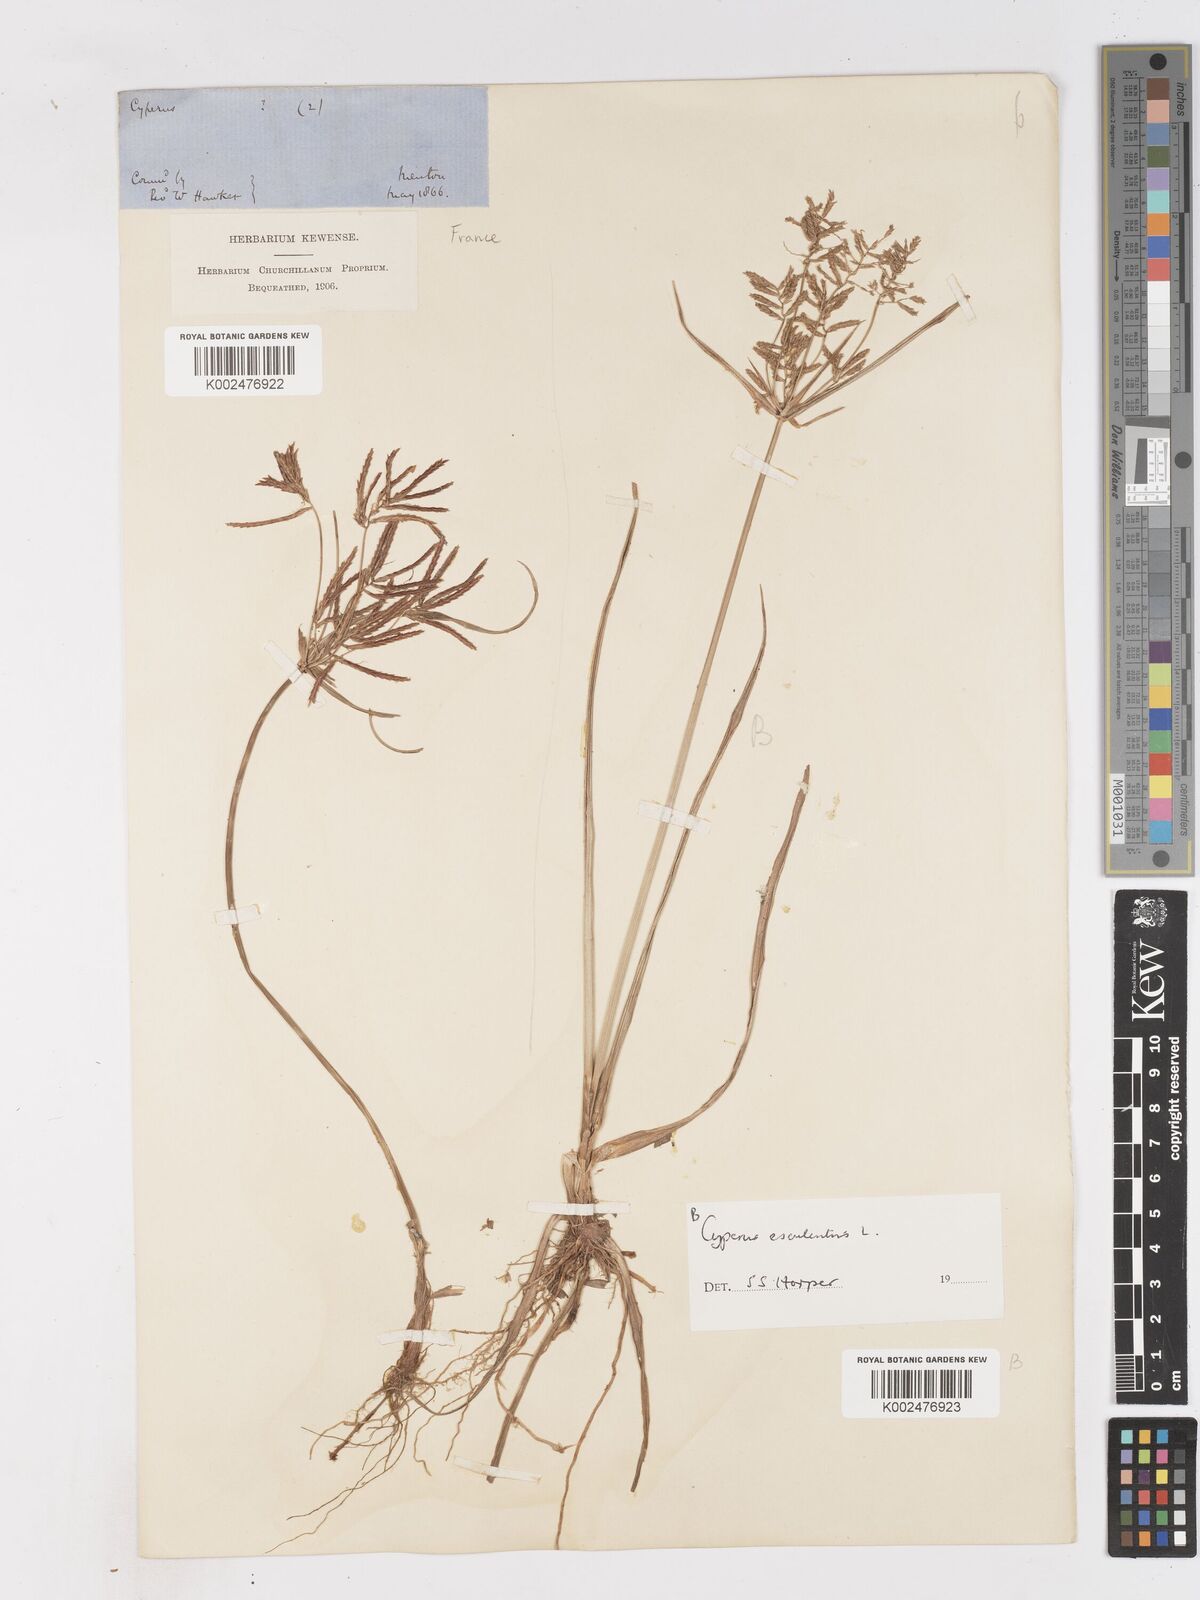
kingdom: Plantae
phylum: Tracheophyta
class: Liliopsida
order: Poales
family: Cyperaceae
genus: Cyperus
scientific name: Cyperus rotundus
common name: Nutgrass
